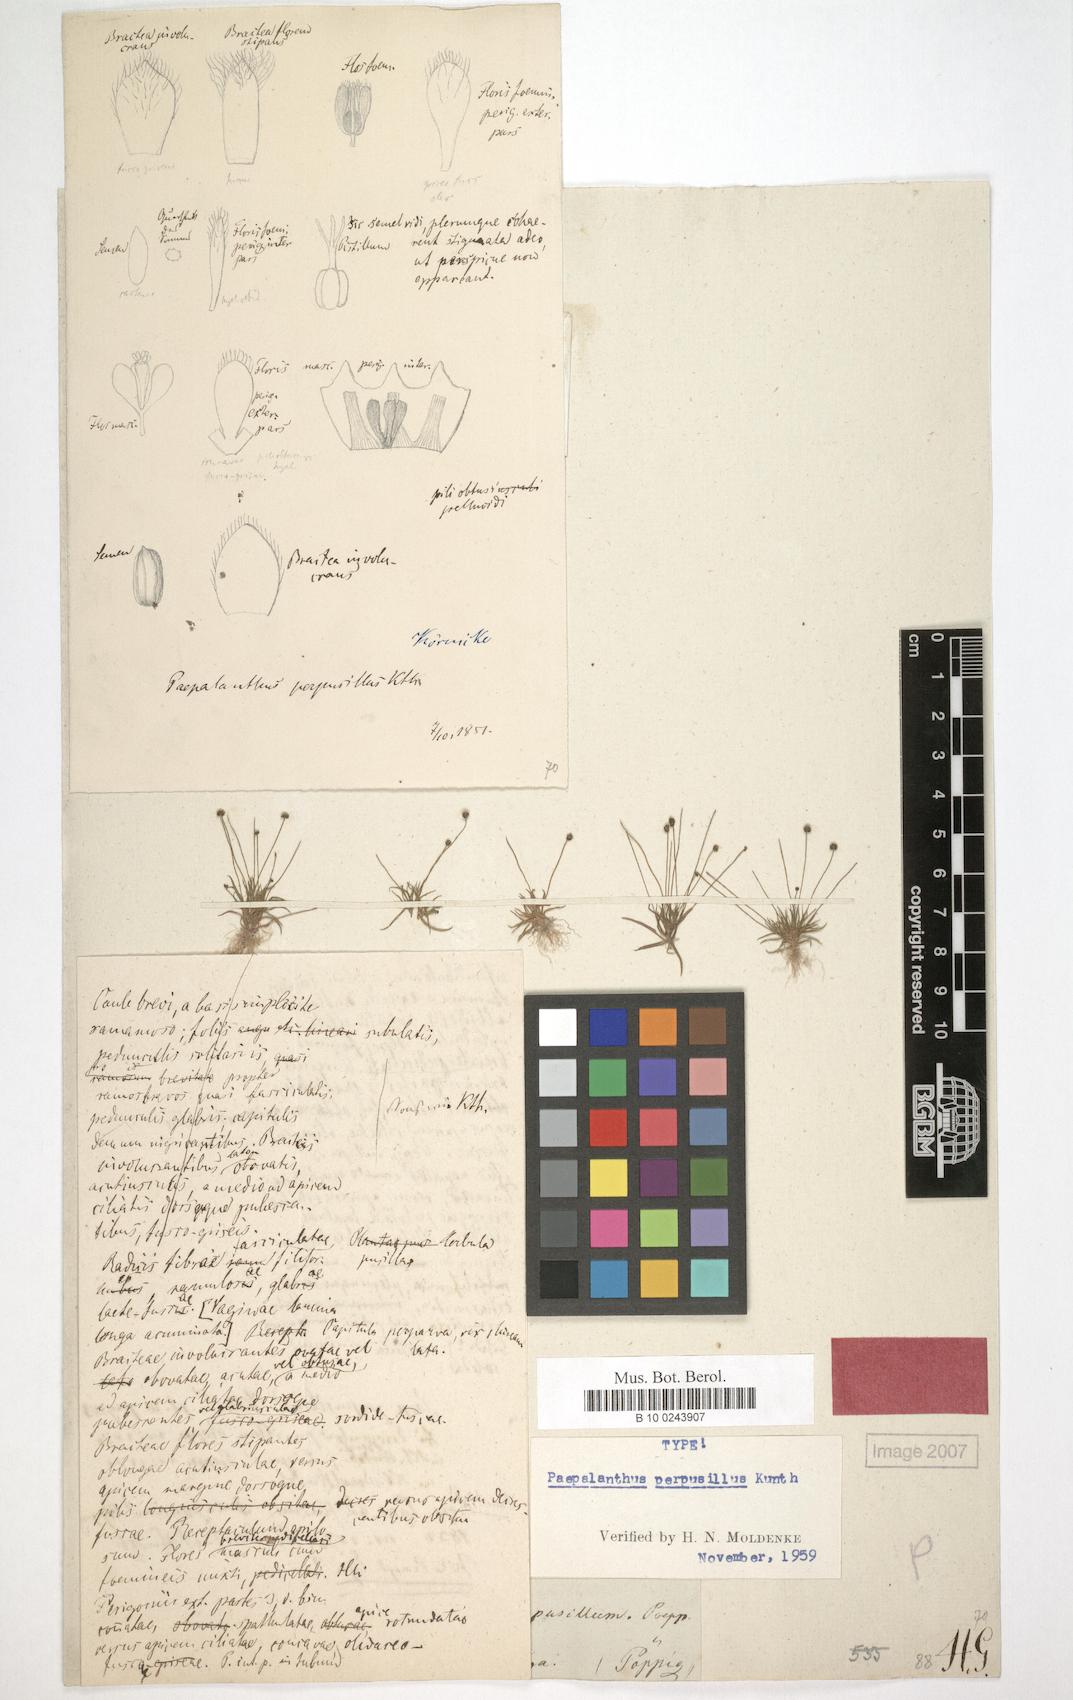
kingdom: Plantae
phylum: Tracheophyta
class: Liliopsida
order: Poales
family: Eriocaulaceae
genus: Paepalanthus
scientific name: Paepalanthus perpusillus
